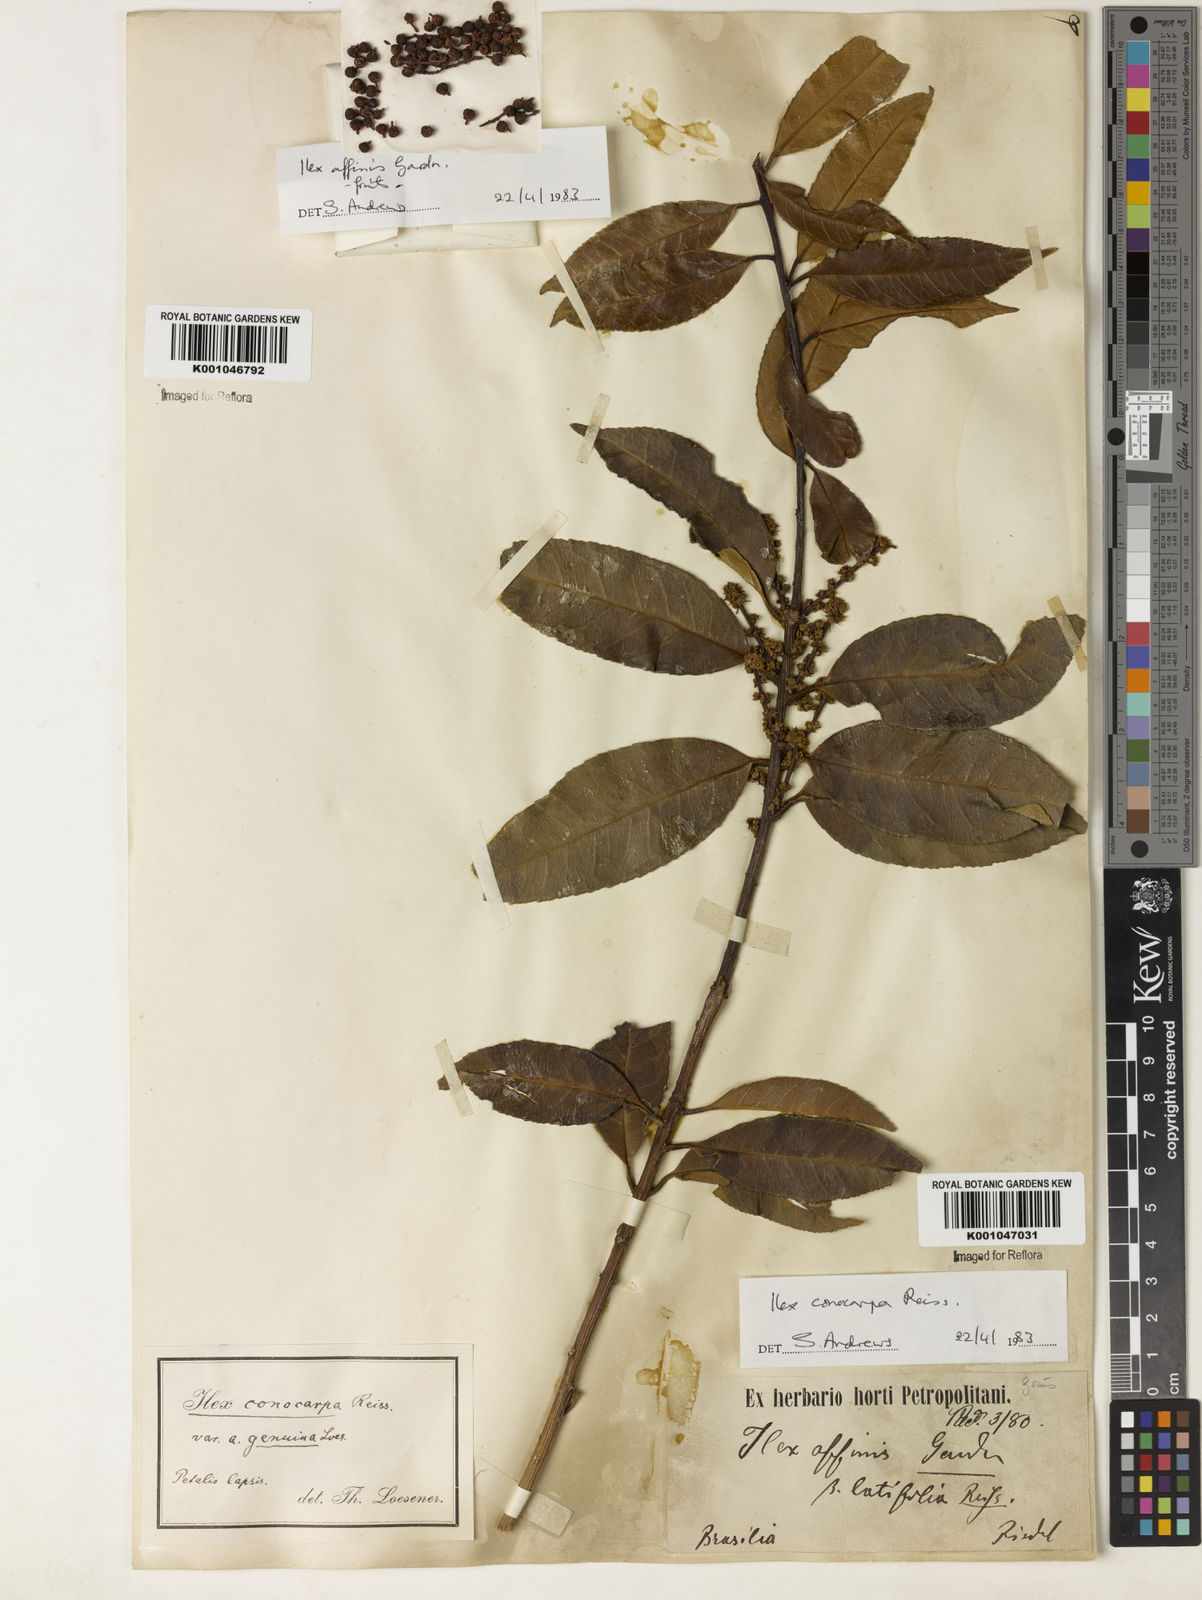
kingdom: Plantae
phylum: Tracheophyta
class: Magnoliopsida
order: Aquifoliales
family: Aquifoliaceae
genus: Ilex
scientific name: Ilex conocarpa
